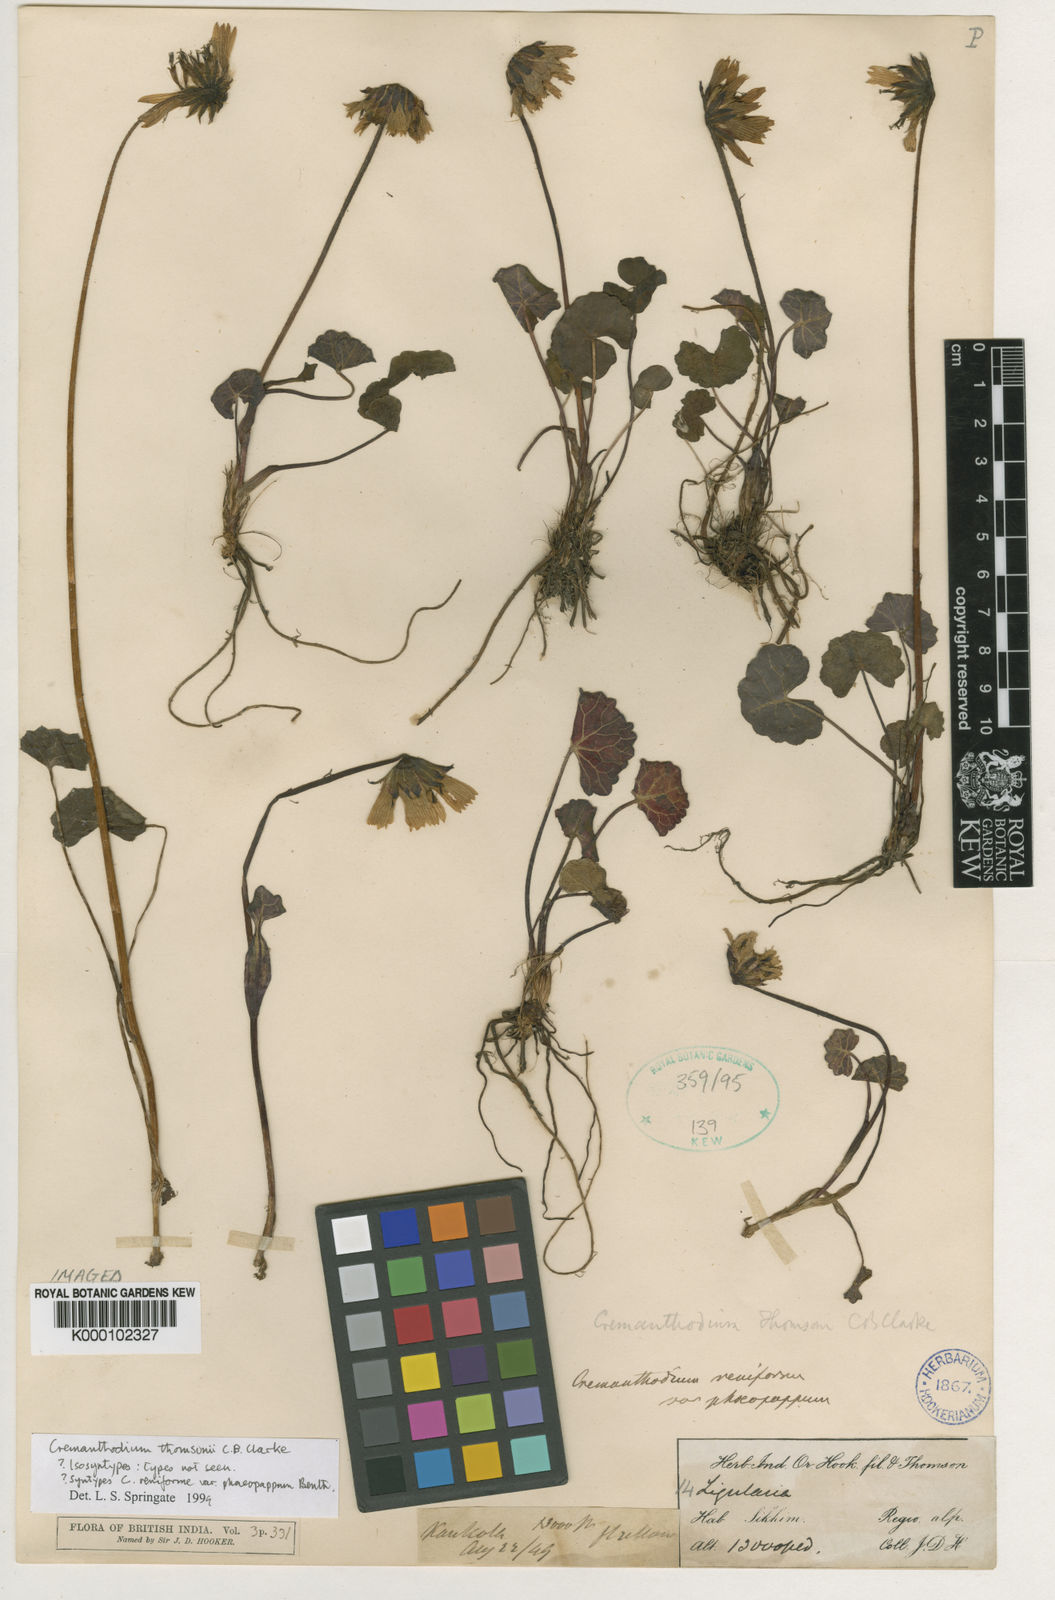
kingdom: Plantae
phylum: Tracheophyta
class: Magnoliopsida
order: Asterales
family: Asteraceae
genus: Cremanthodium
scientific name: Cremanthodium thomsonii
